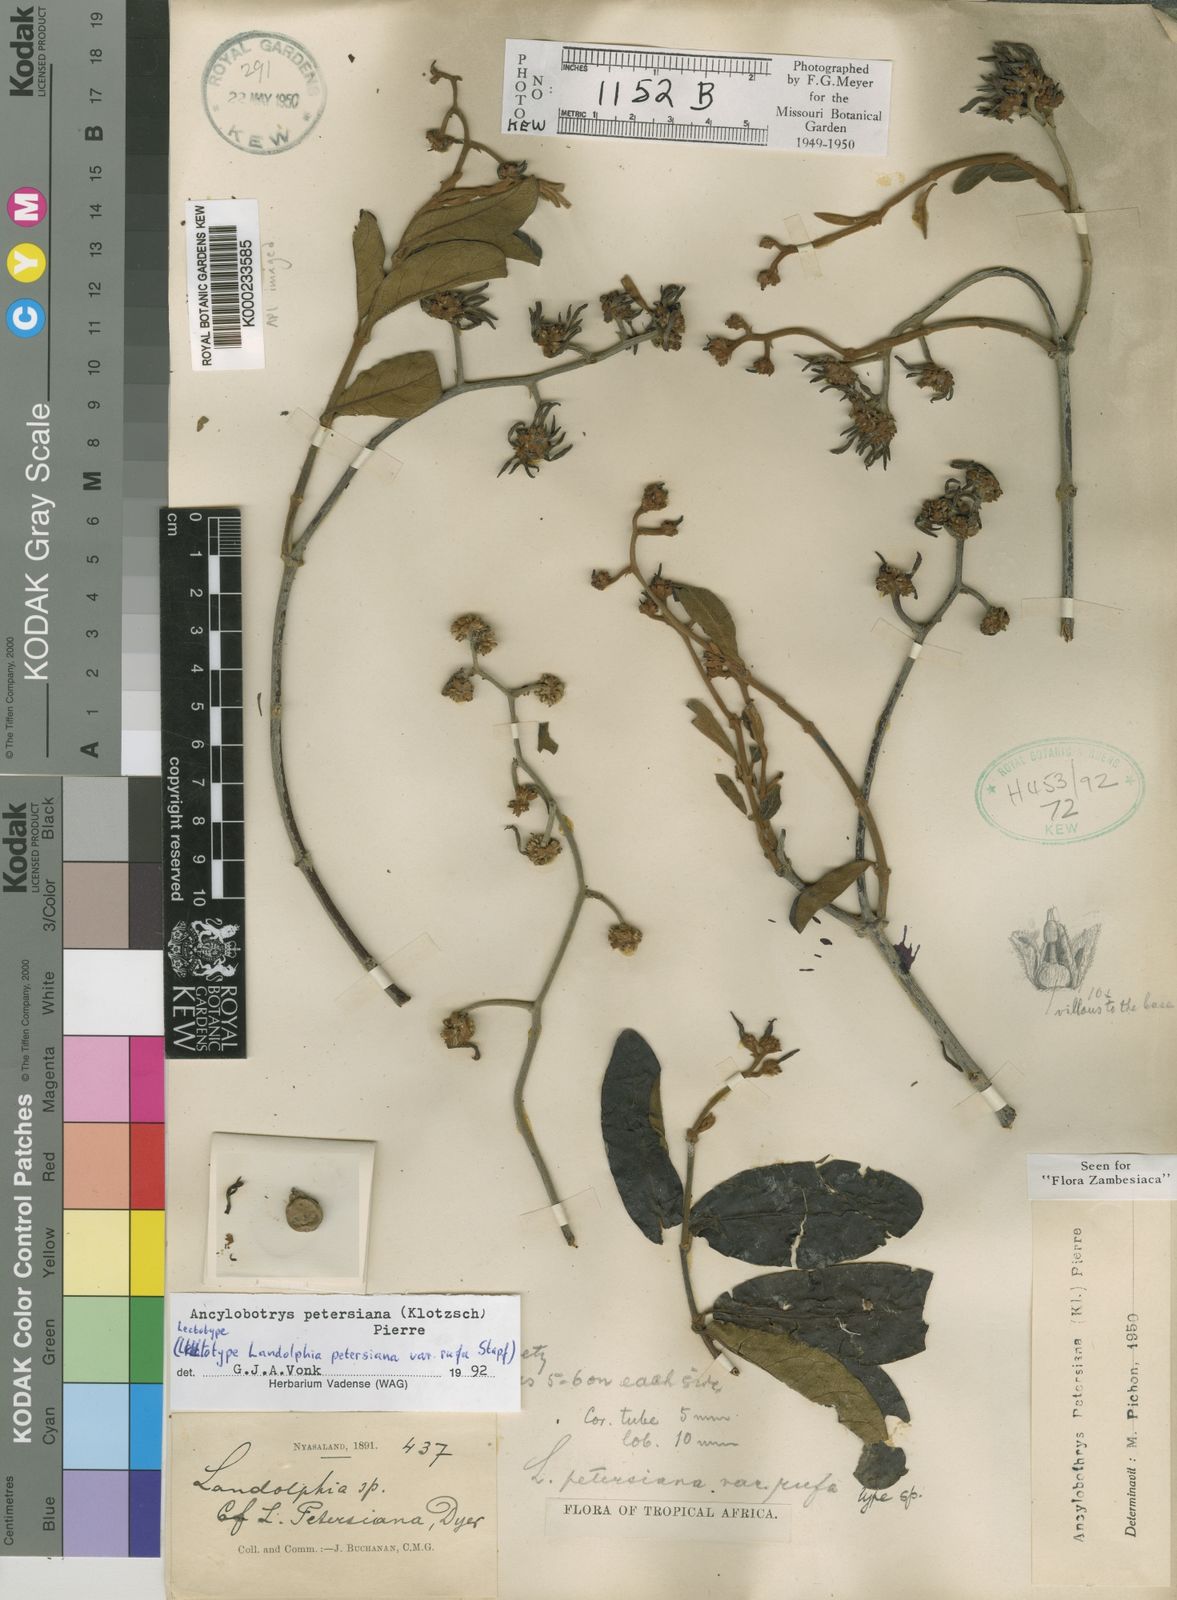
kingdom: Plantae
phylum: Tracheophyta
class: Magnoliopsida
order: Gentianales
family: Apocynaceae
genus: Ancylobothrys
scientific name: Ancylobothrys petersiana
